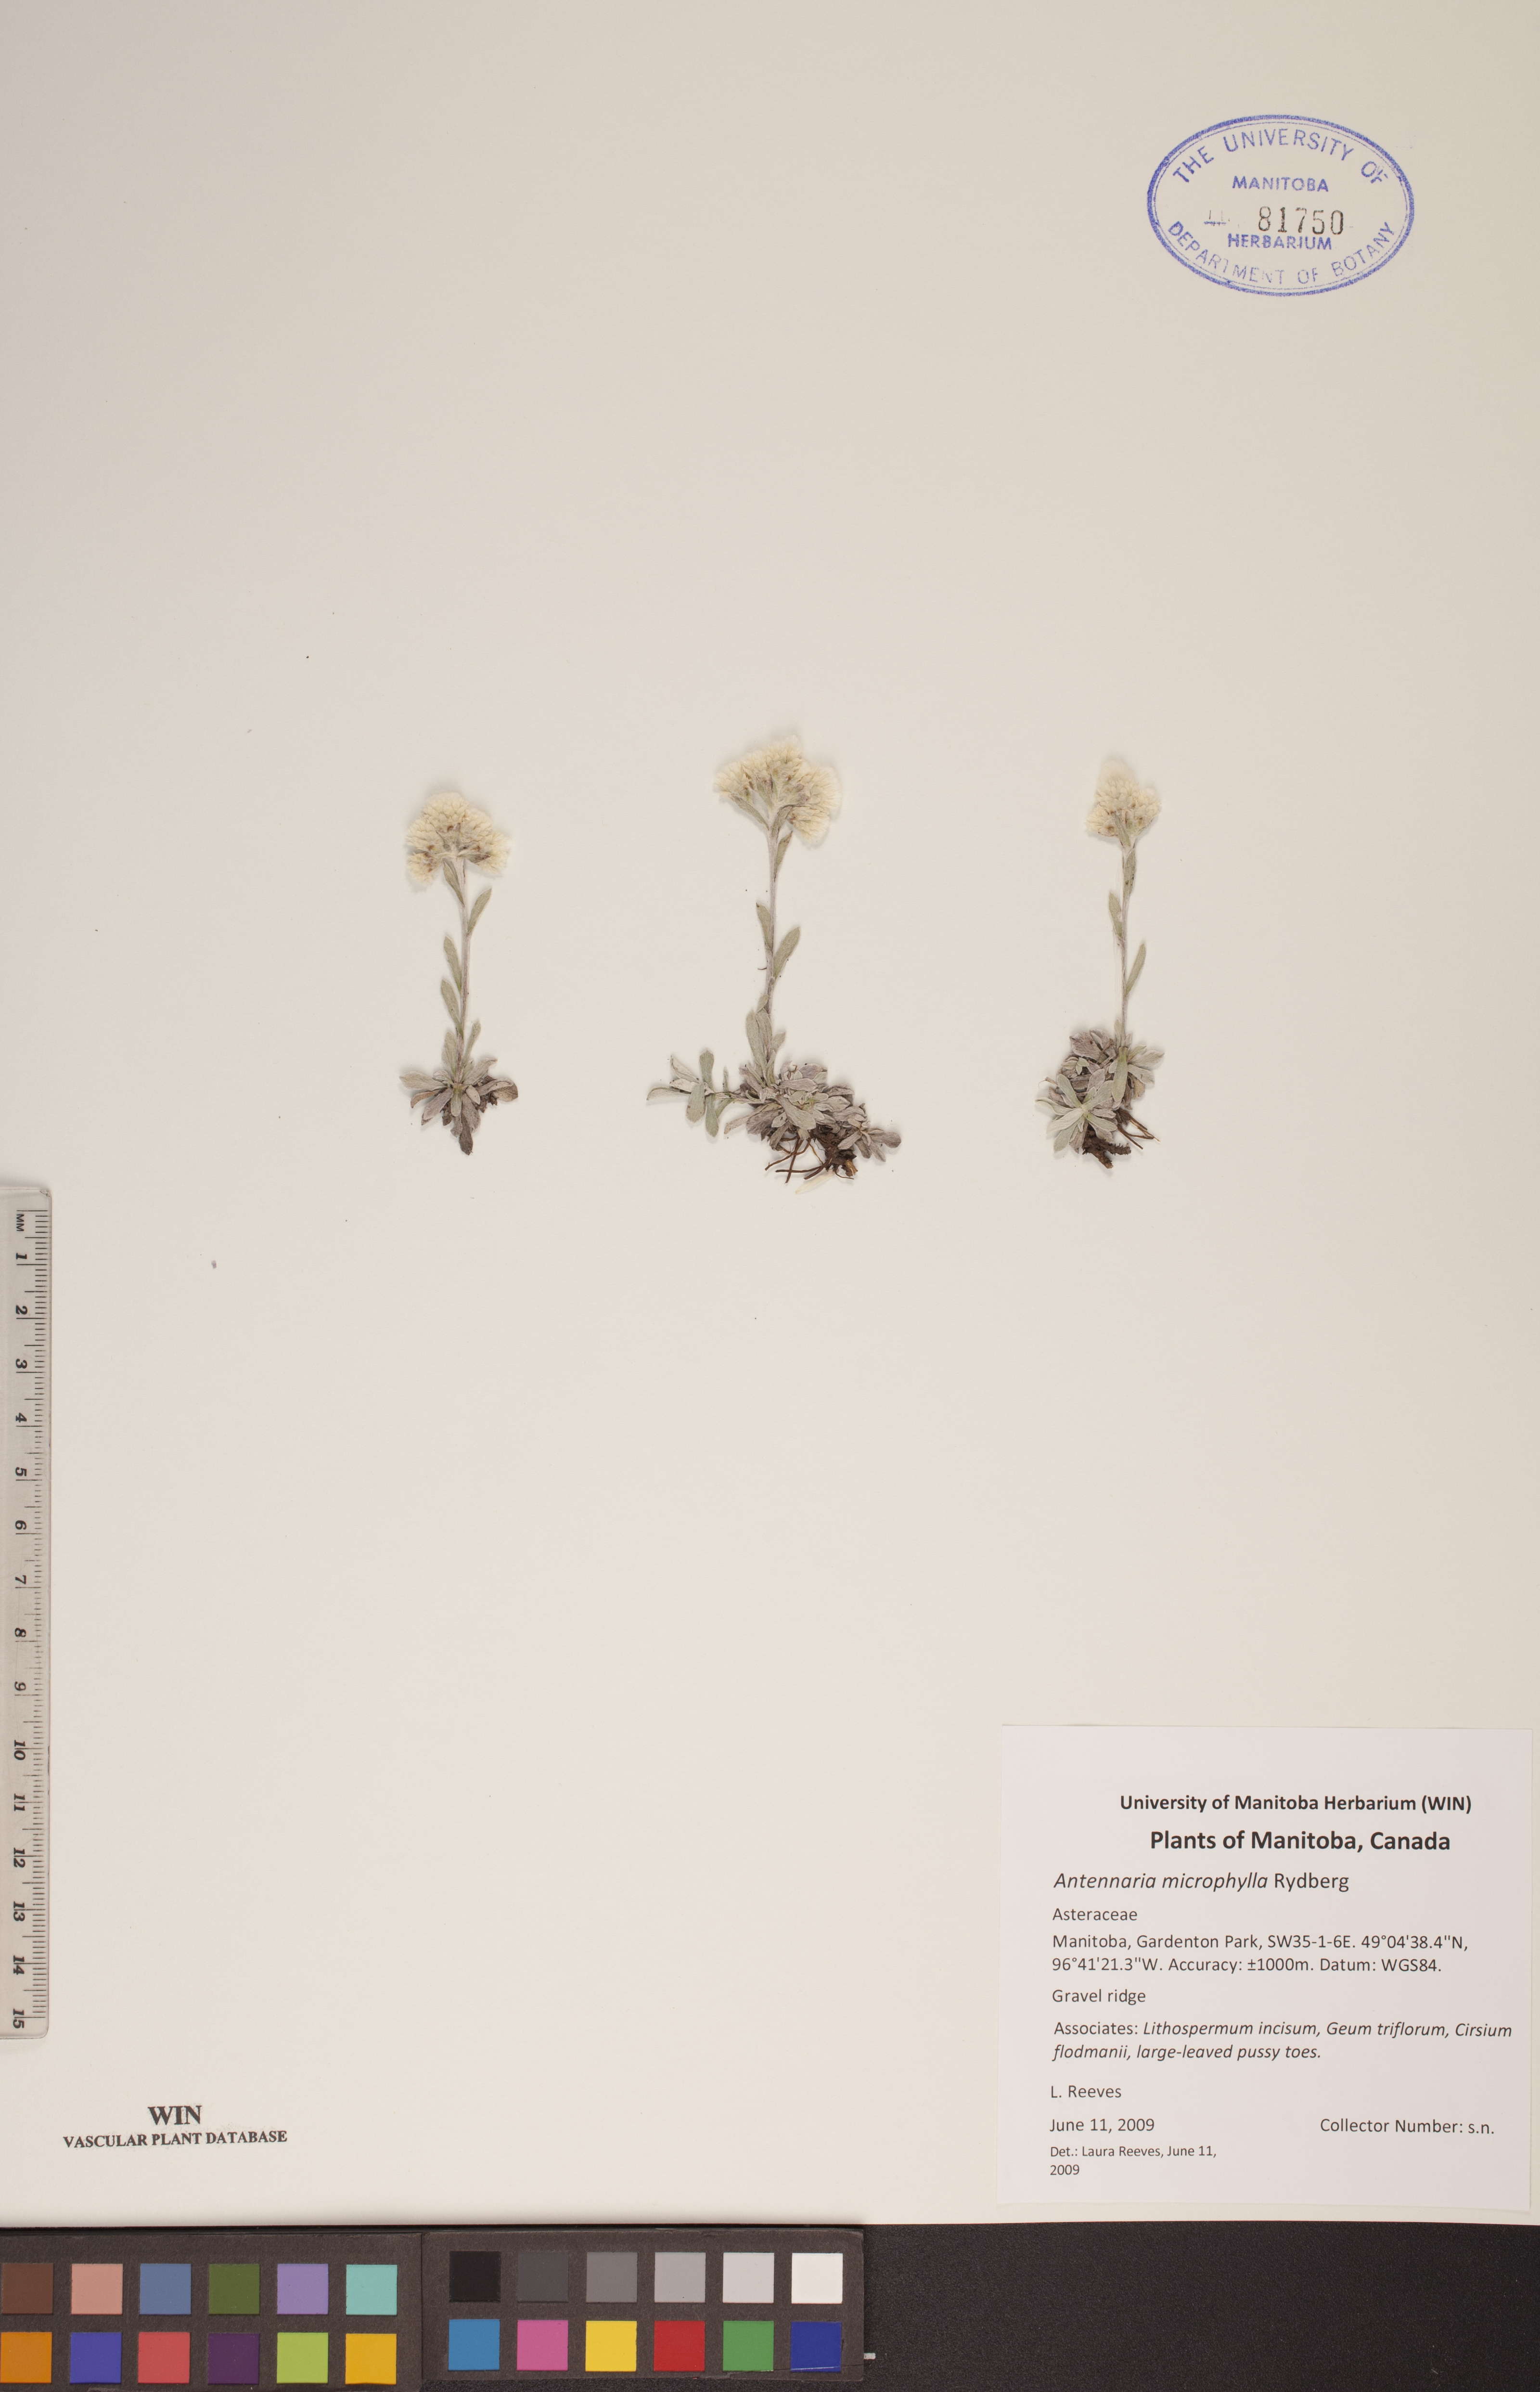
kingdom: Plantae
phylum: Tracheophyta
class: Magnoliopsida
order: Asterales
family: Asteraceae
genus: Antennaria
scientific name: Antennaria microphylla
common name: Littleleaf pussytoes
